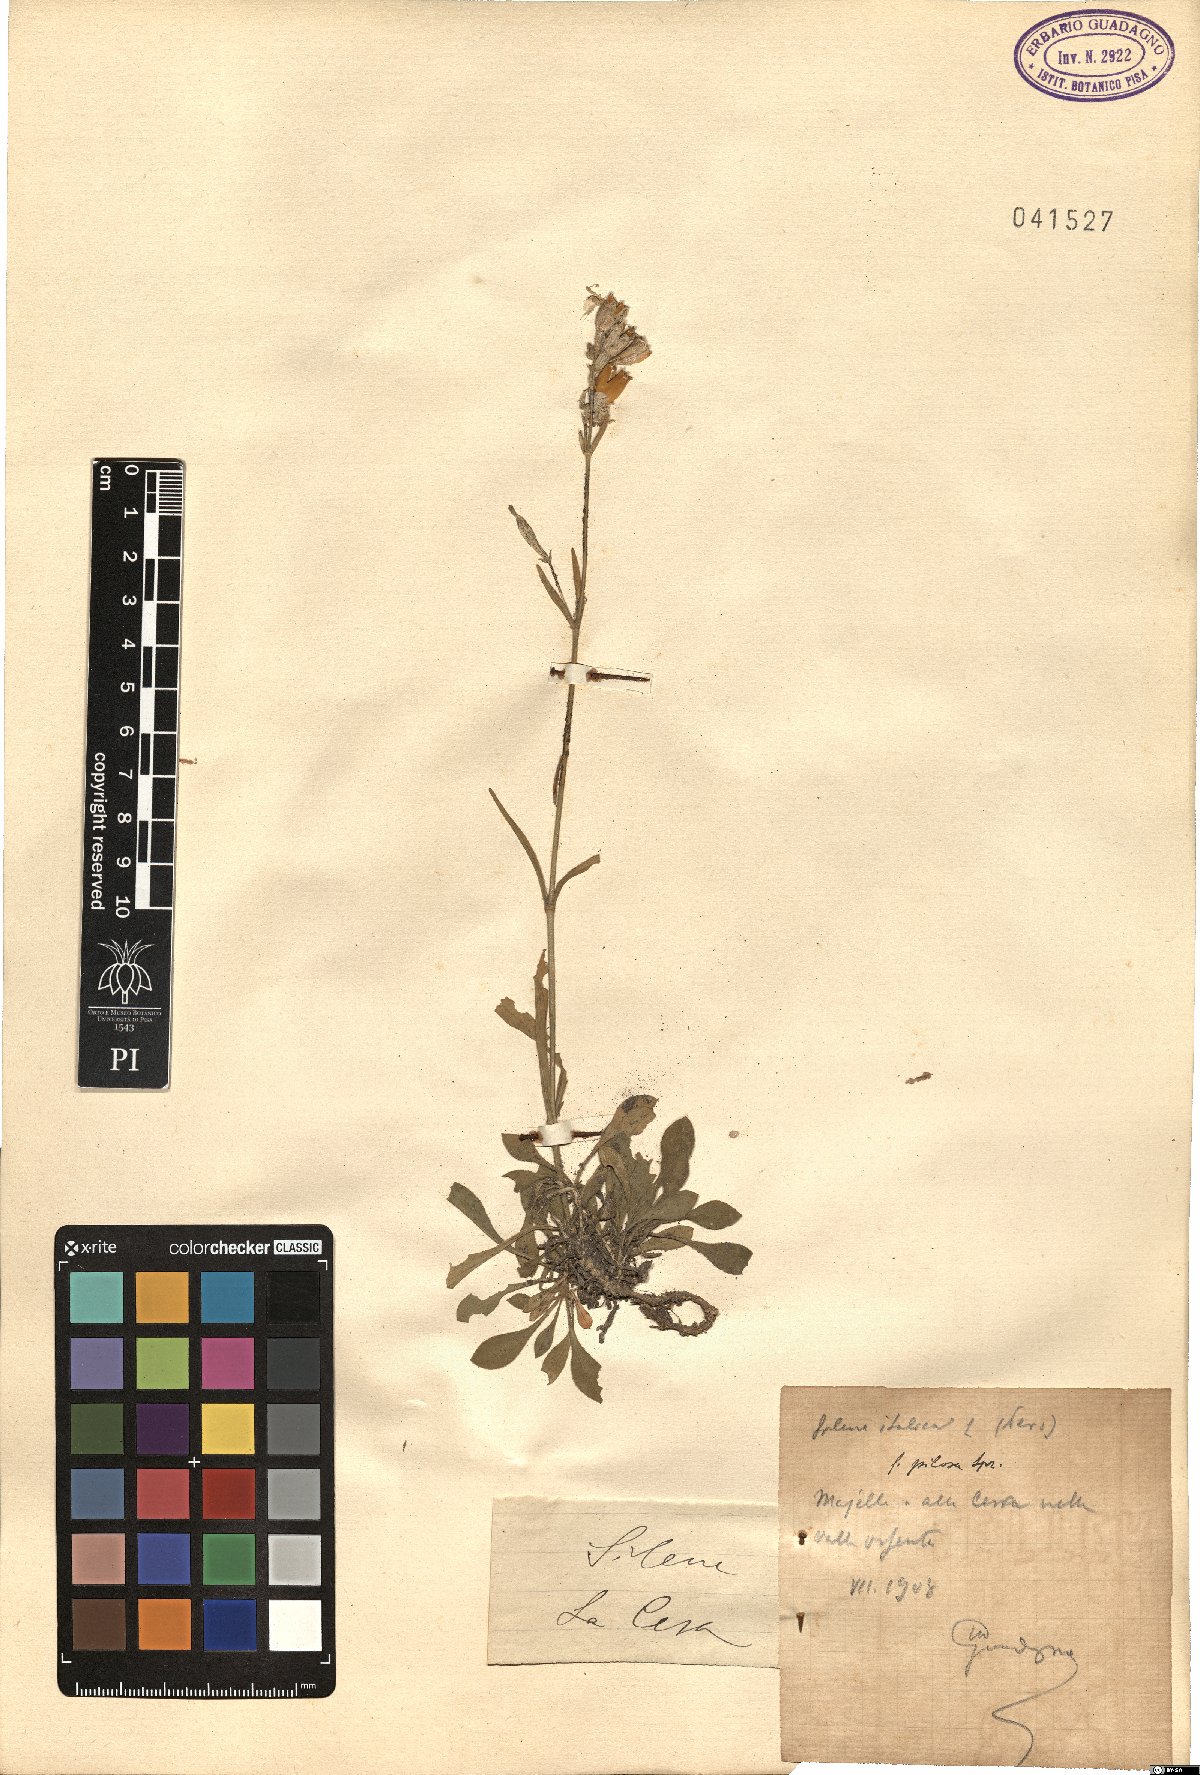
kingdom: Plantae
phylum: Tracheophyta
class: Magnoliopsida
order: Caryophyllales
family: Caryophyllaceae
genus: Silene
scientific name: Silene italica
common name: Italian catchfly
